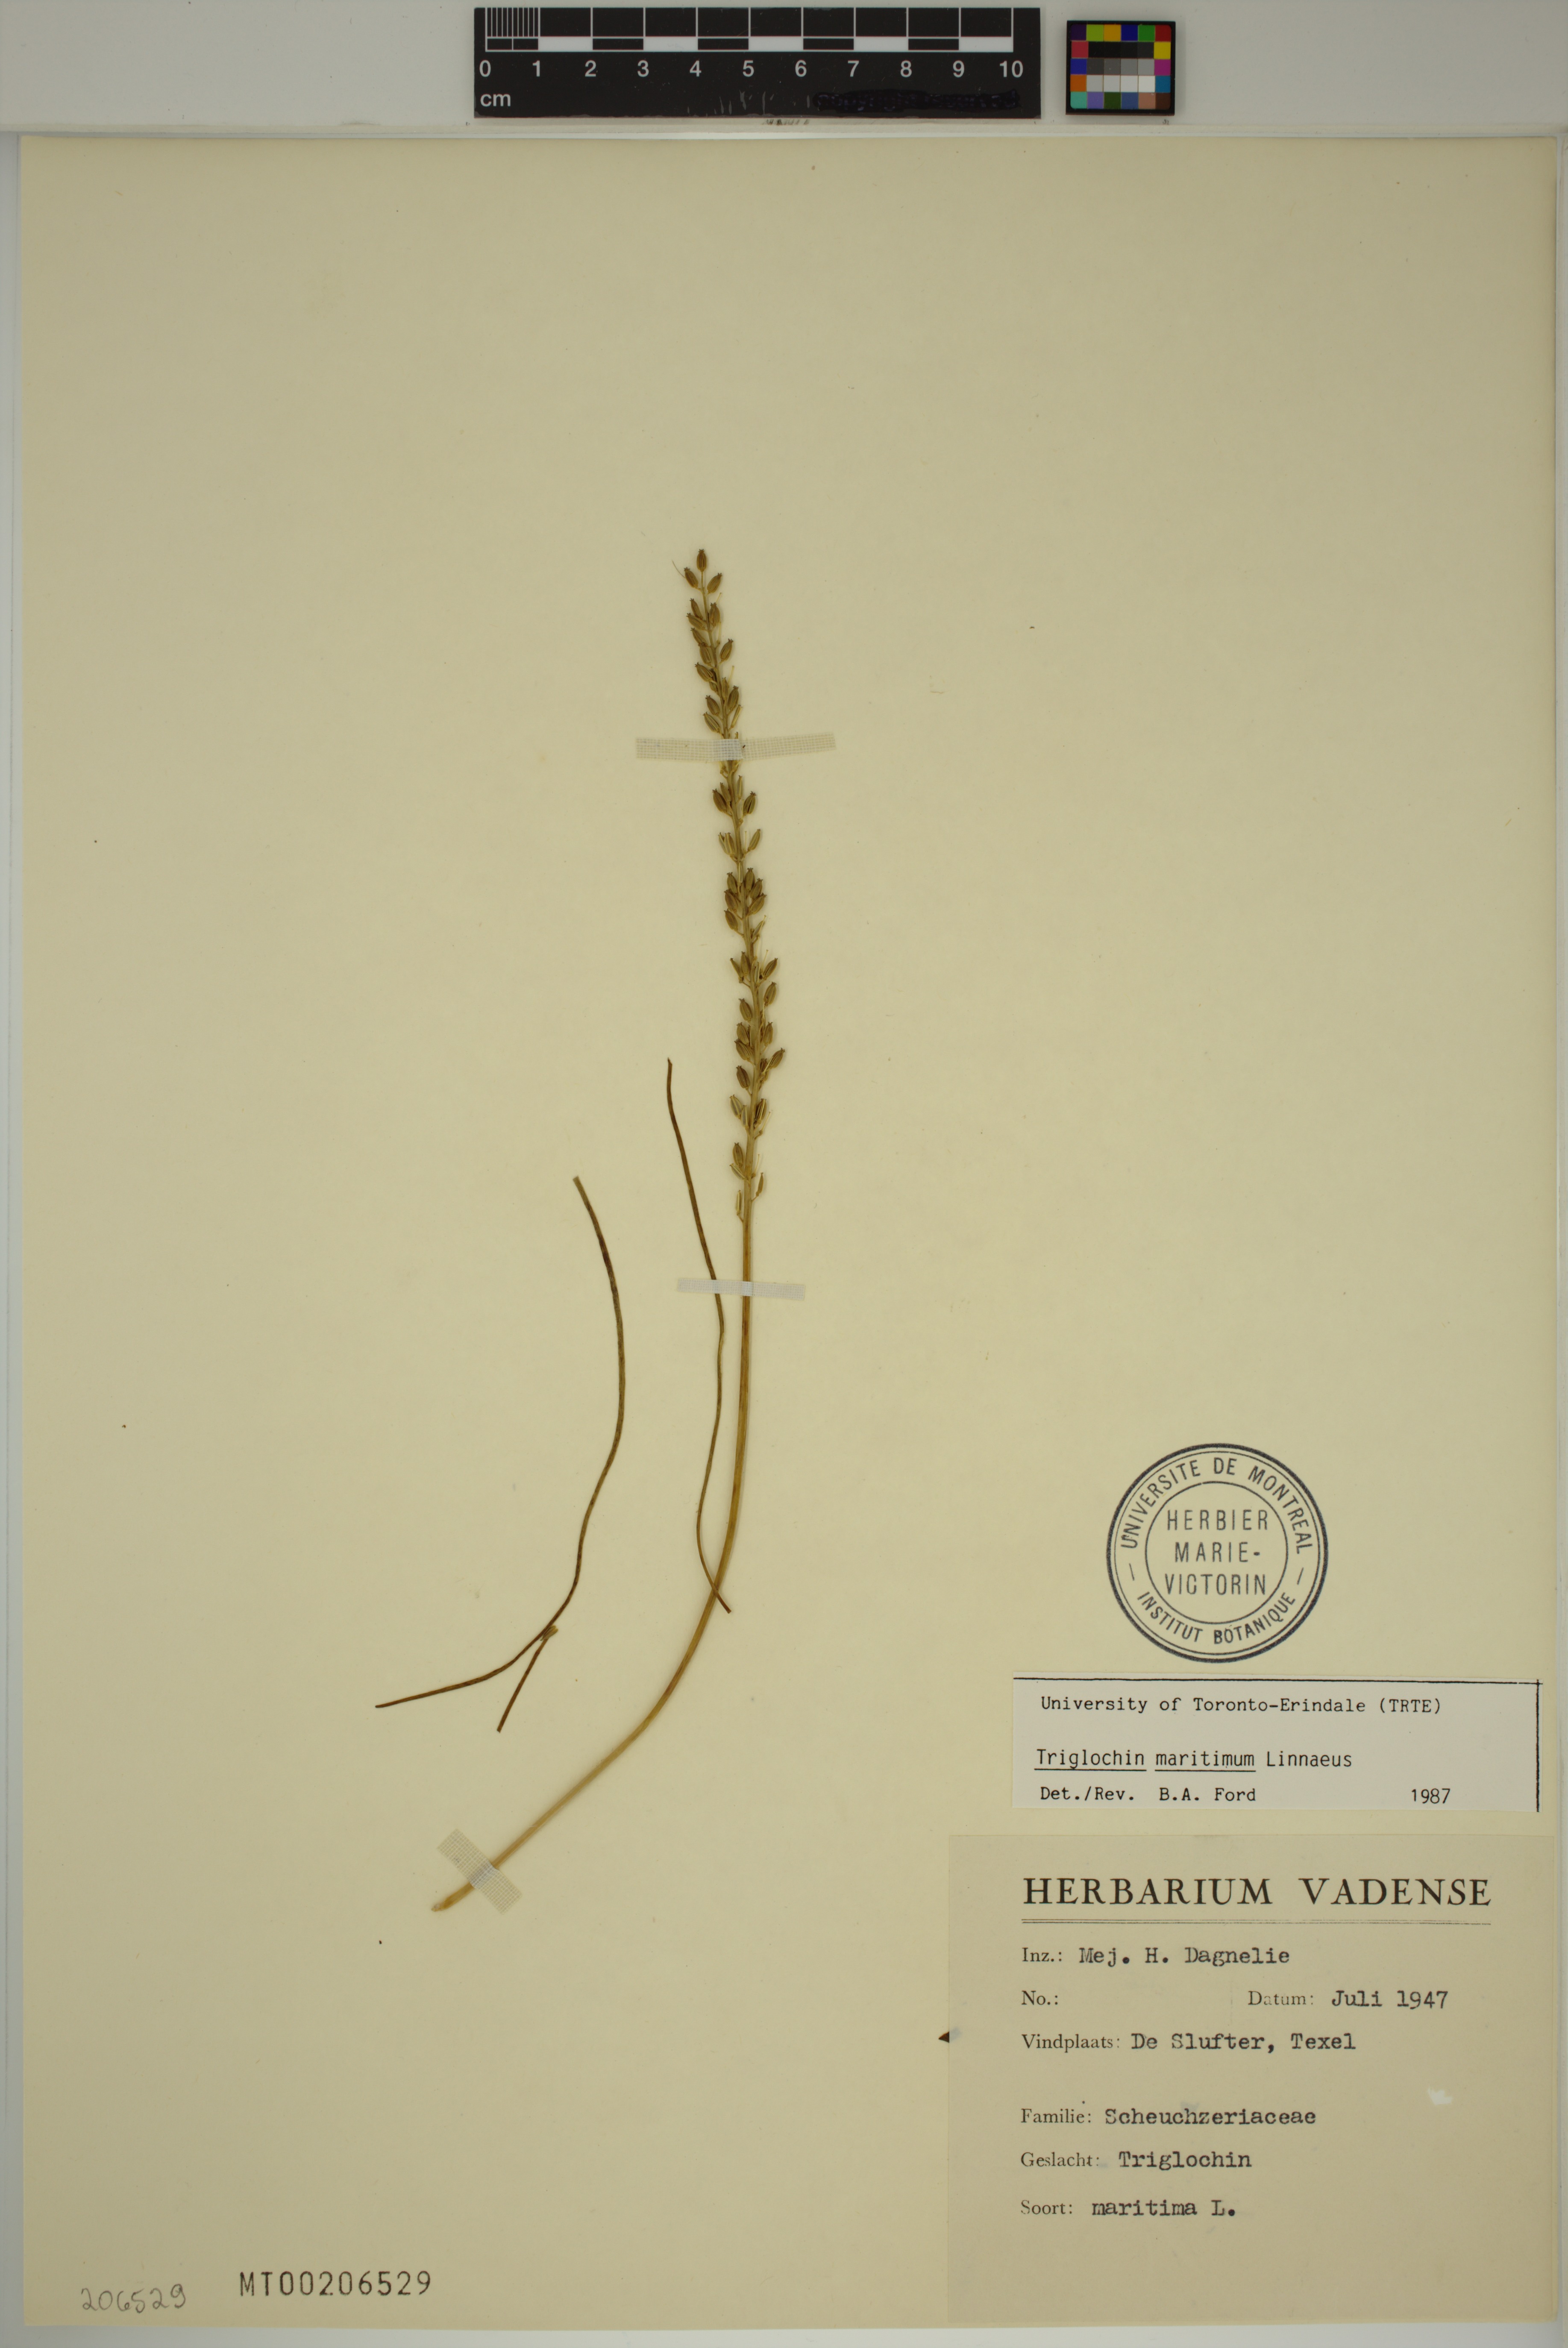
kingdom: Plantae
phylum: Tracheophyta
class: Liliopsida
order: Alismatales
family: Juncaginaceae
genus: Triglochin
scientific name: Triglochin maritima
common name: Sea arrowgrass
